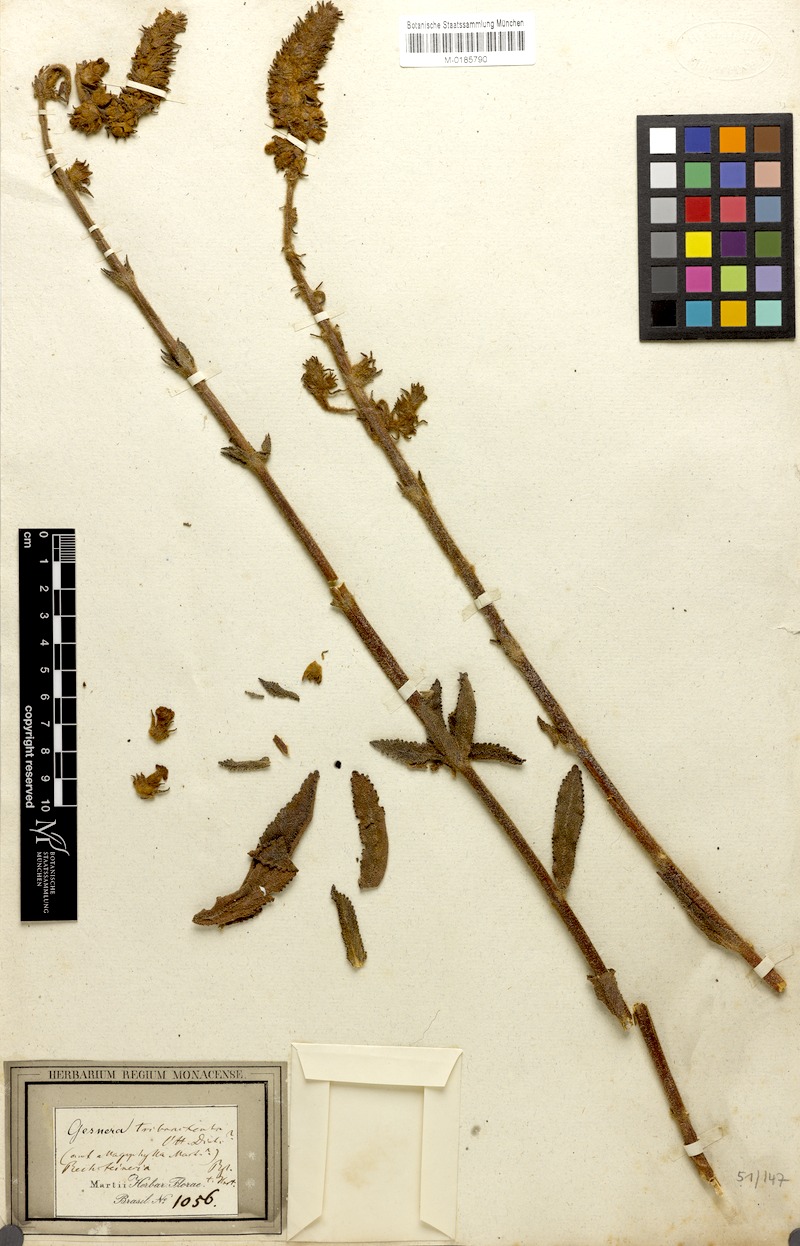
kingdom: Plantae
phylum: Tracheophyta
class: Magnoliopsida
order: Lamiales
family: Gesneriaceae
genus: Sinningia
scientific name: Sinningia allagophylla
